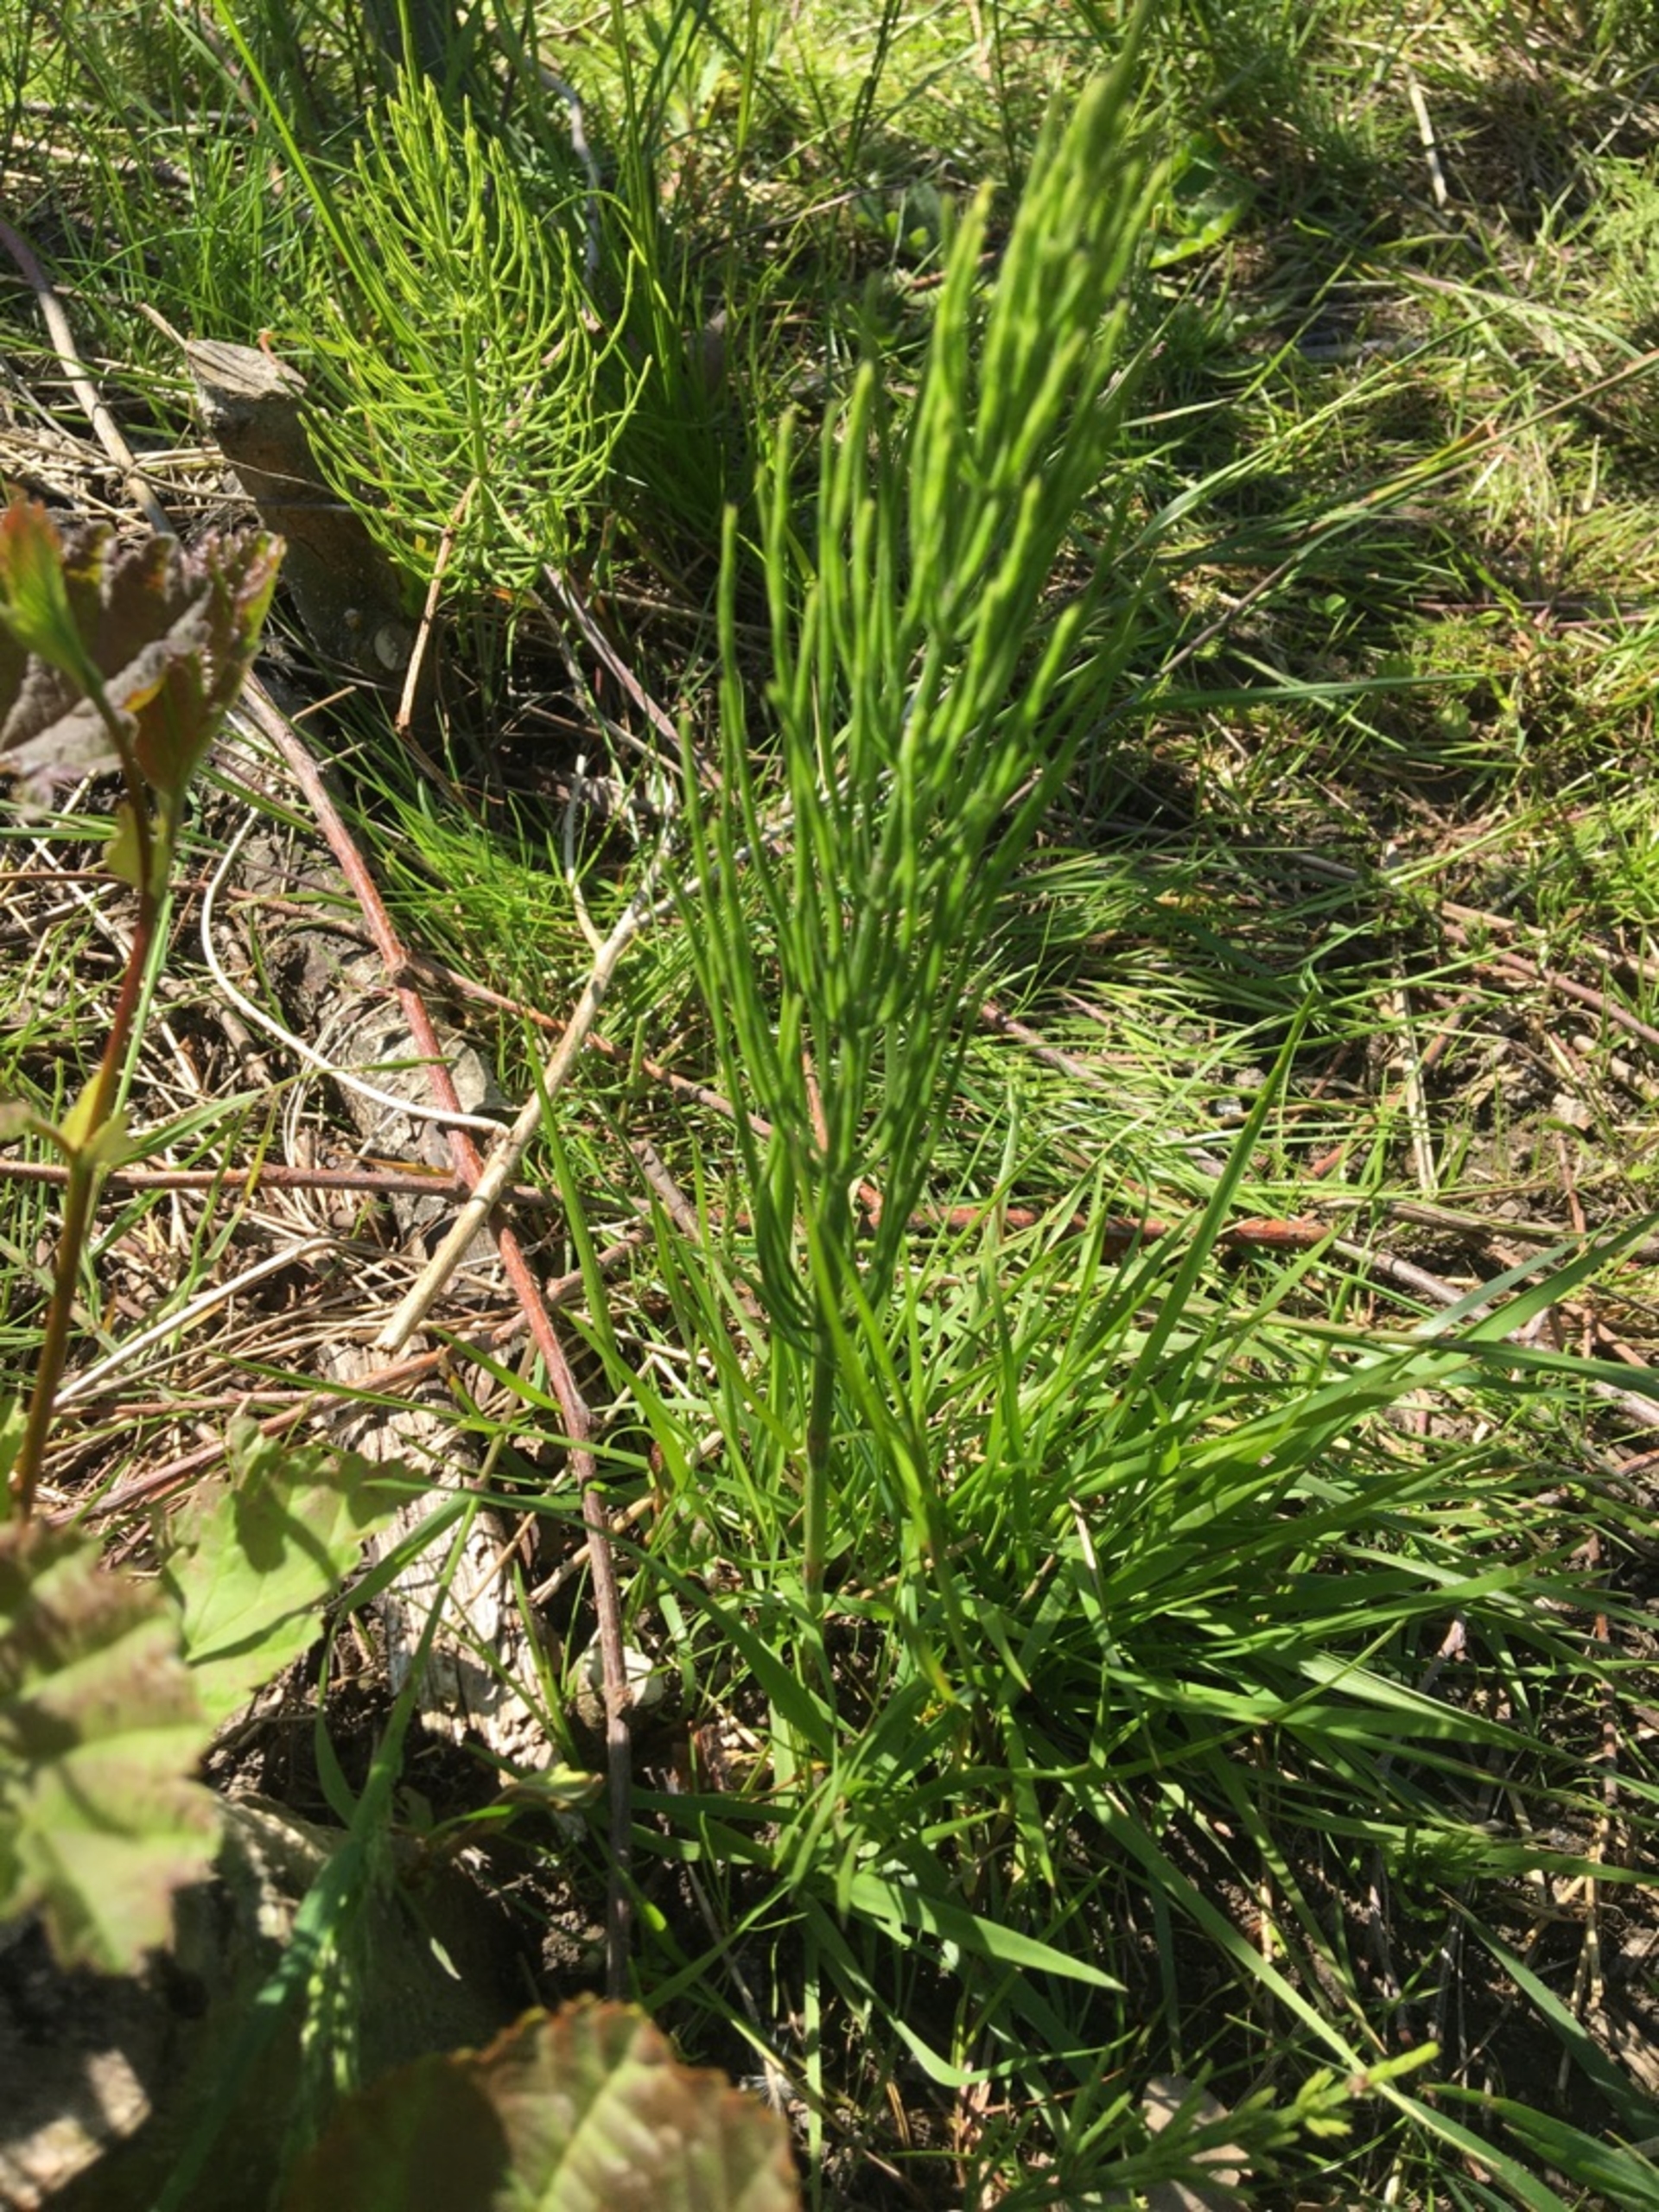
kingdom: Plantae
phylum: Tracheophyta
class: Polypodiopsida
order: Equisetales
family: Equisetaceae
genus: Equisetum
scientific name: Equisetum arvense
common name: Ager-padderok
